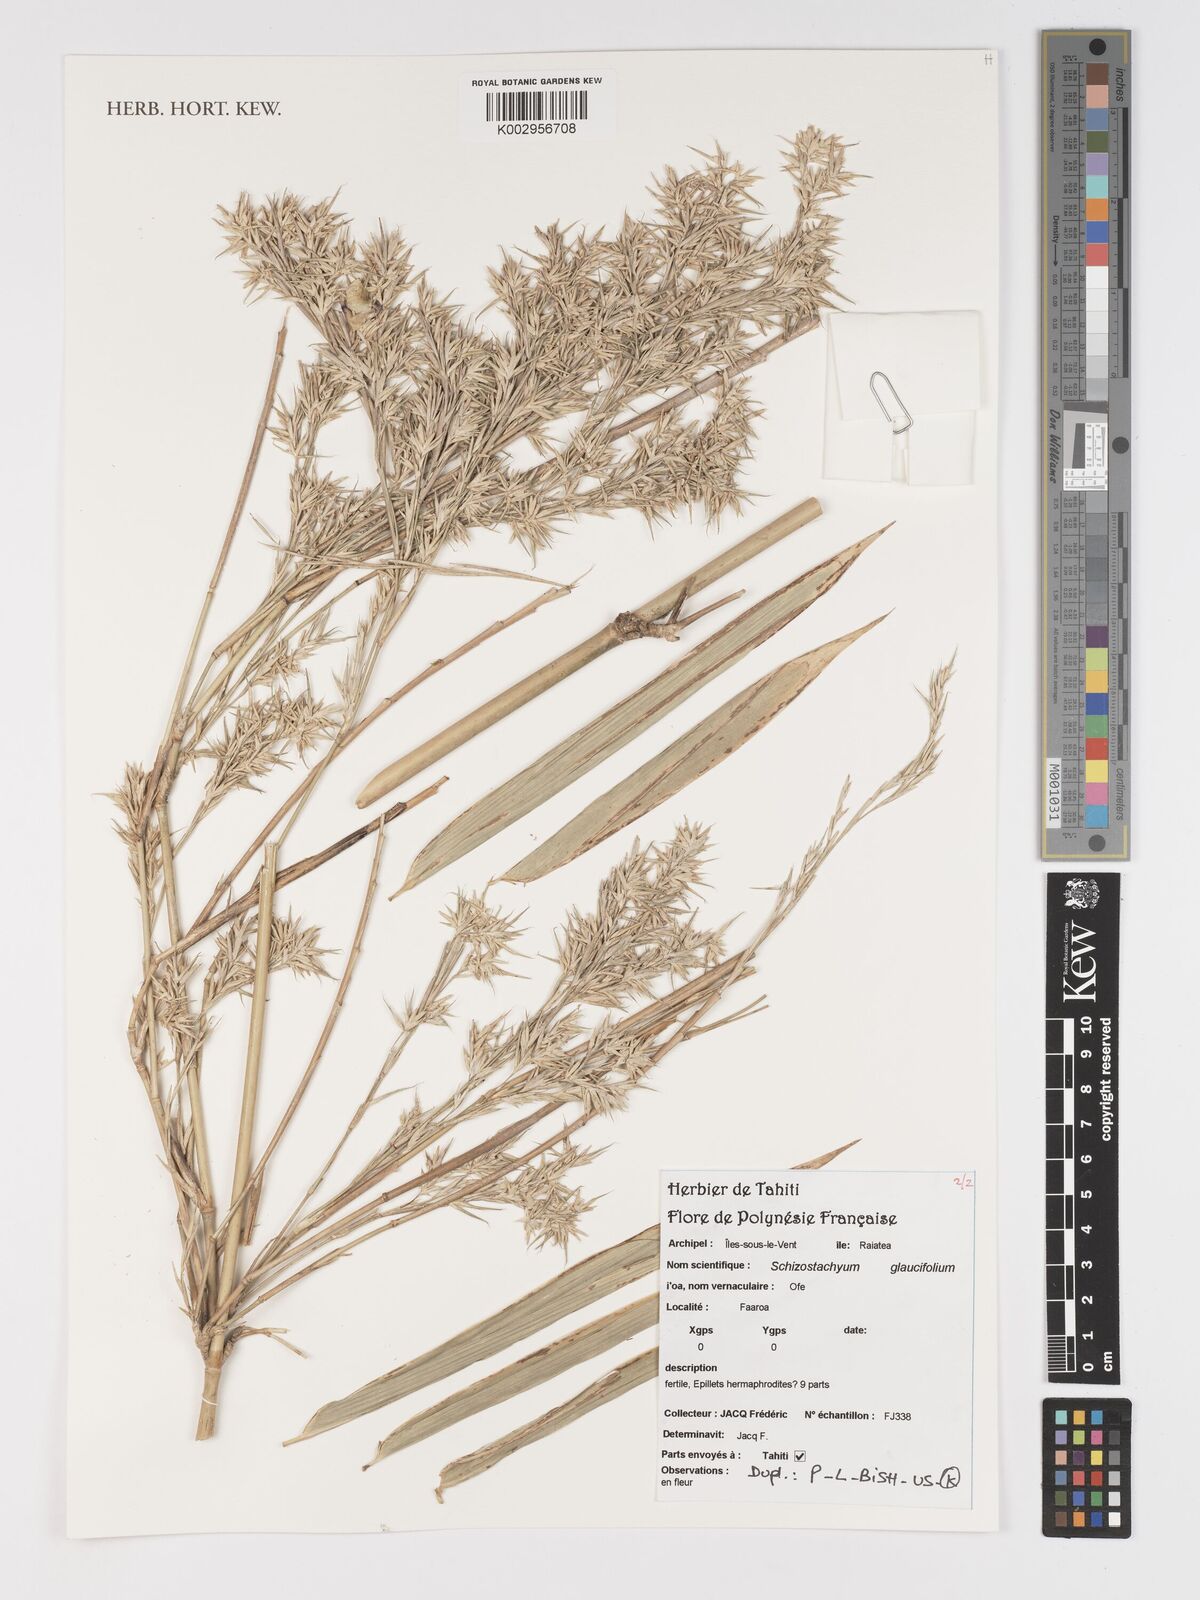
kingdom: Plantae
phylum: Tracheophyta
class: Liliopsida
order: Poales
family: Poaceae
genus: Schizostachyum
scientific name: Schizostachyum glaucifolium
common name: Polynesian 'ohe
